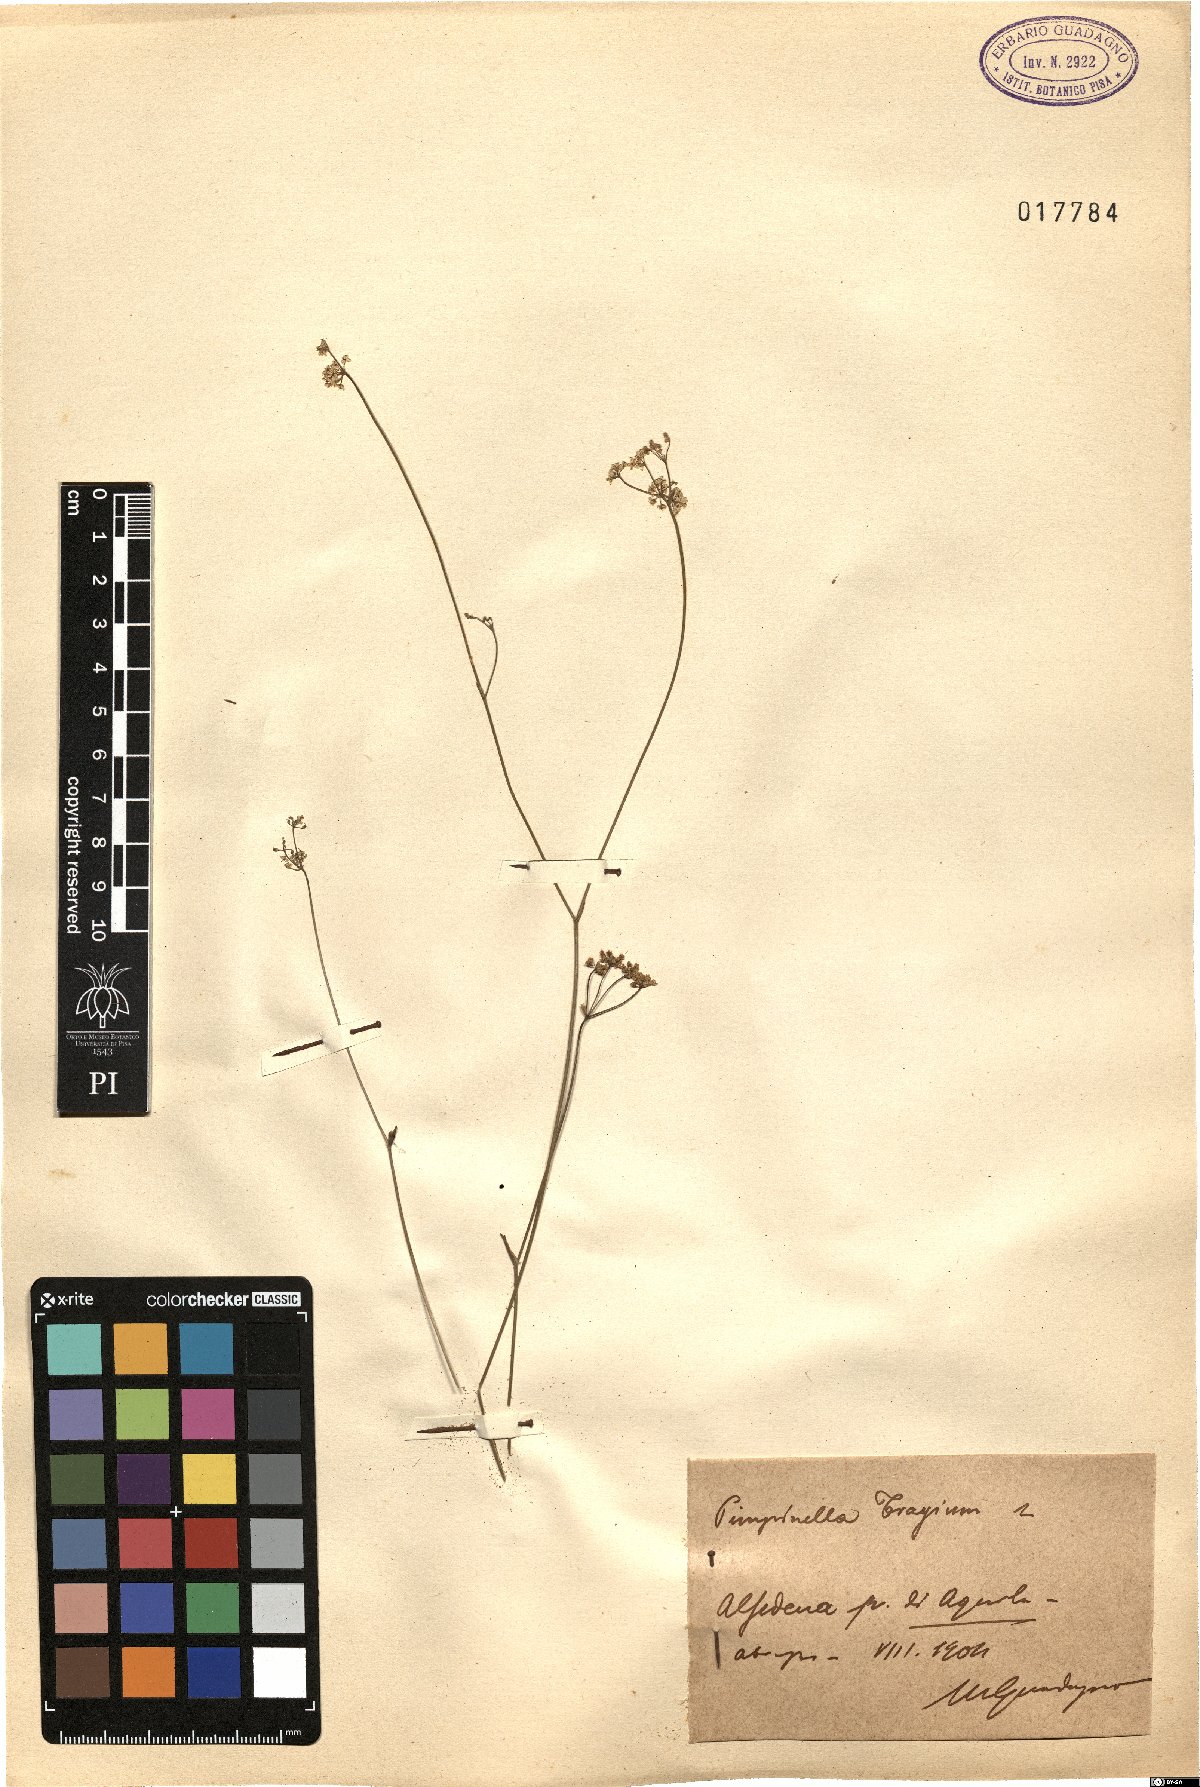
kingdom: Plantae
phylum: Tracheophyta
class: Magnoliopsida
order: Apiales
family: Apiaceae
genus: Pimpinella
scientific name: Pimpinella tragium
